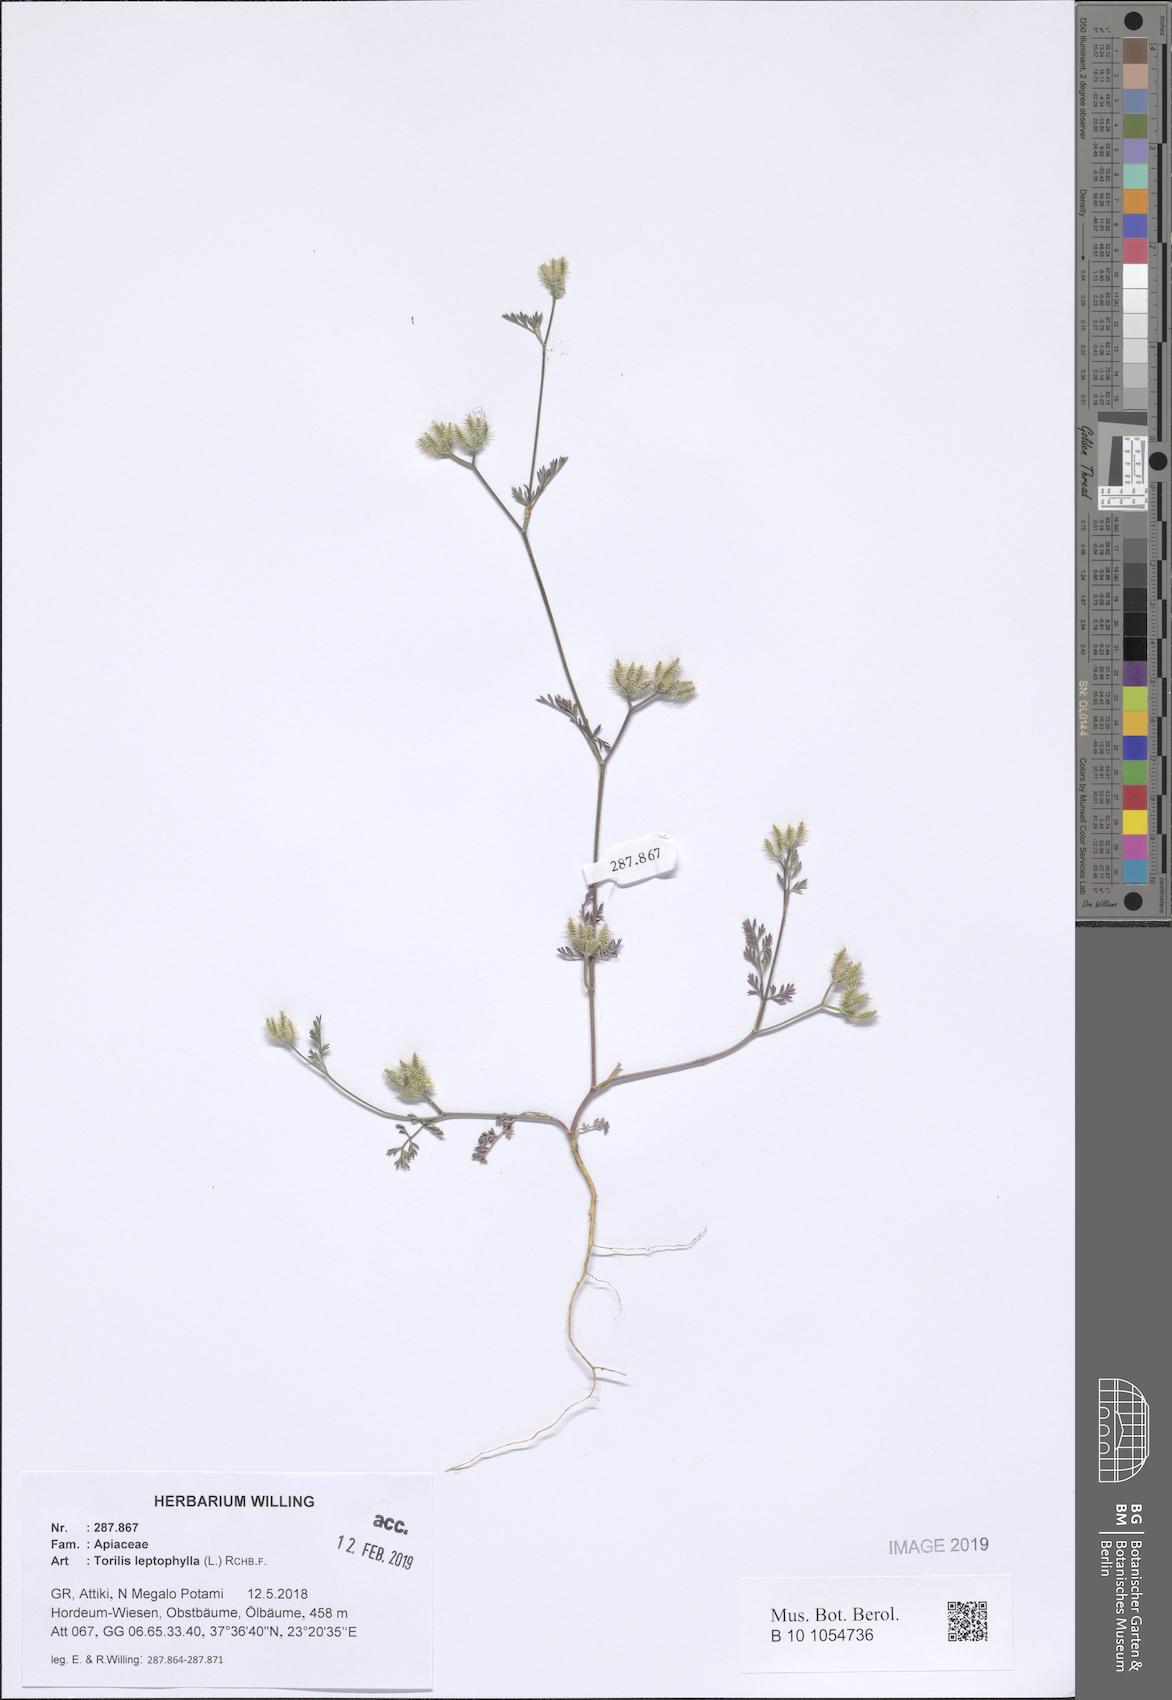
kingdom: Plantae
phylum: Tracheophyta
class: Magnoliopsida
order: Apiales
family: Apiaceae
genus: Torilis
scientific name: Torilis leptophylla
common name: Bristlefruit hedgeparsley
